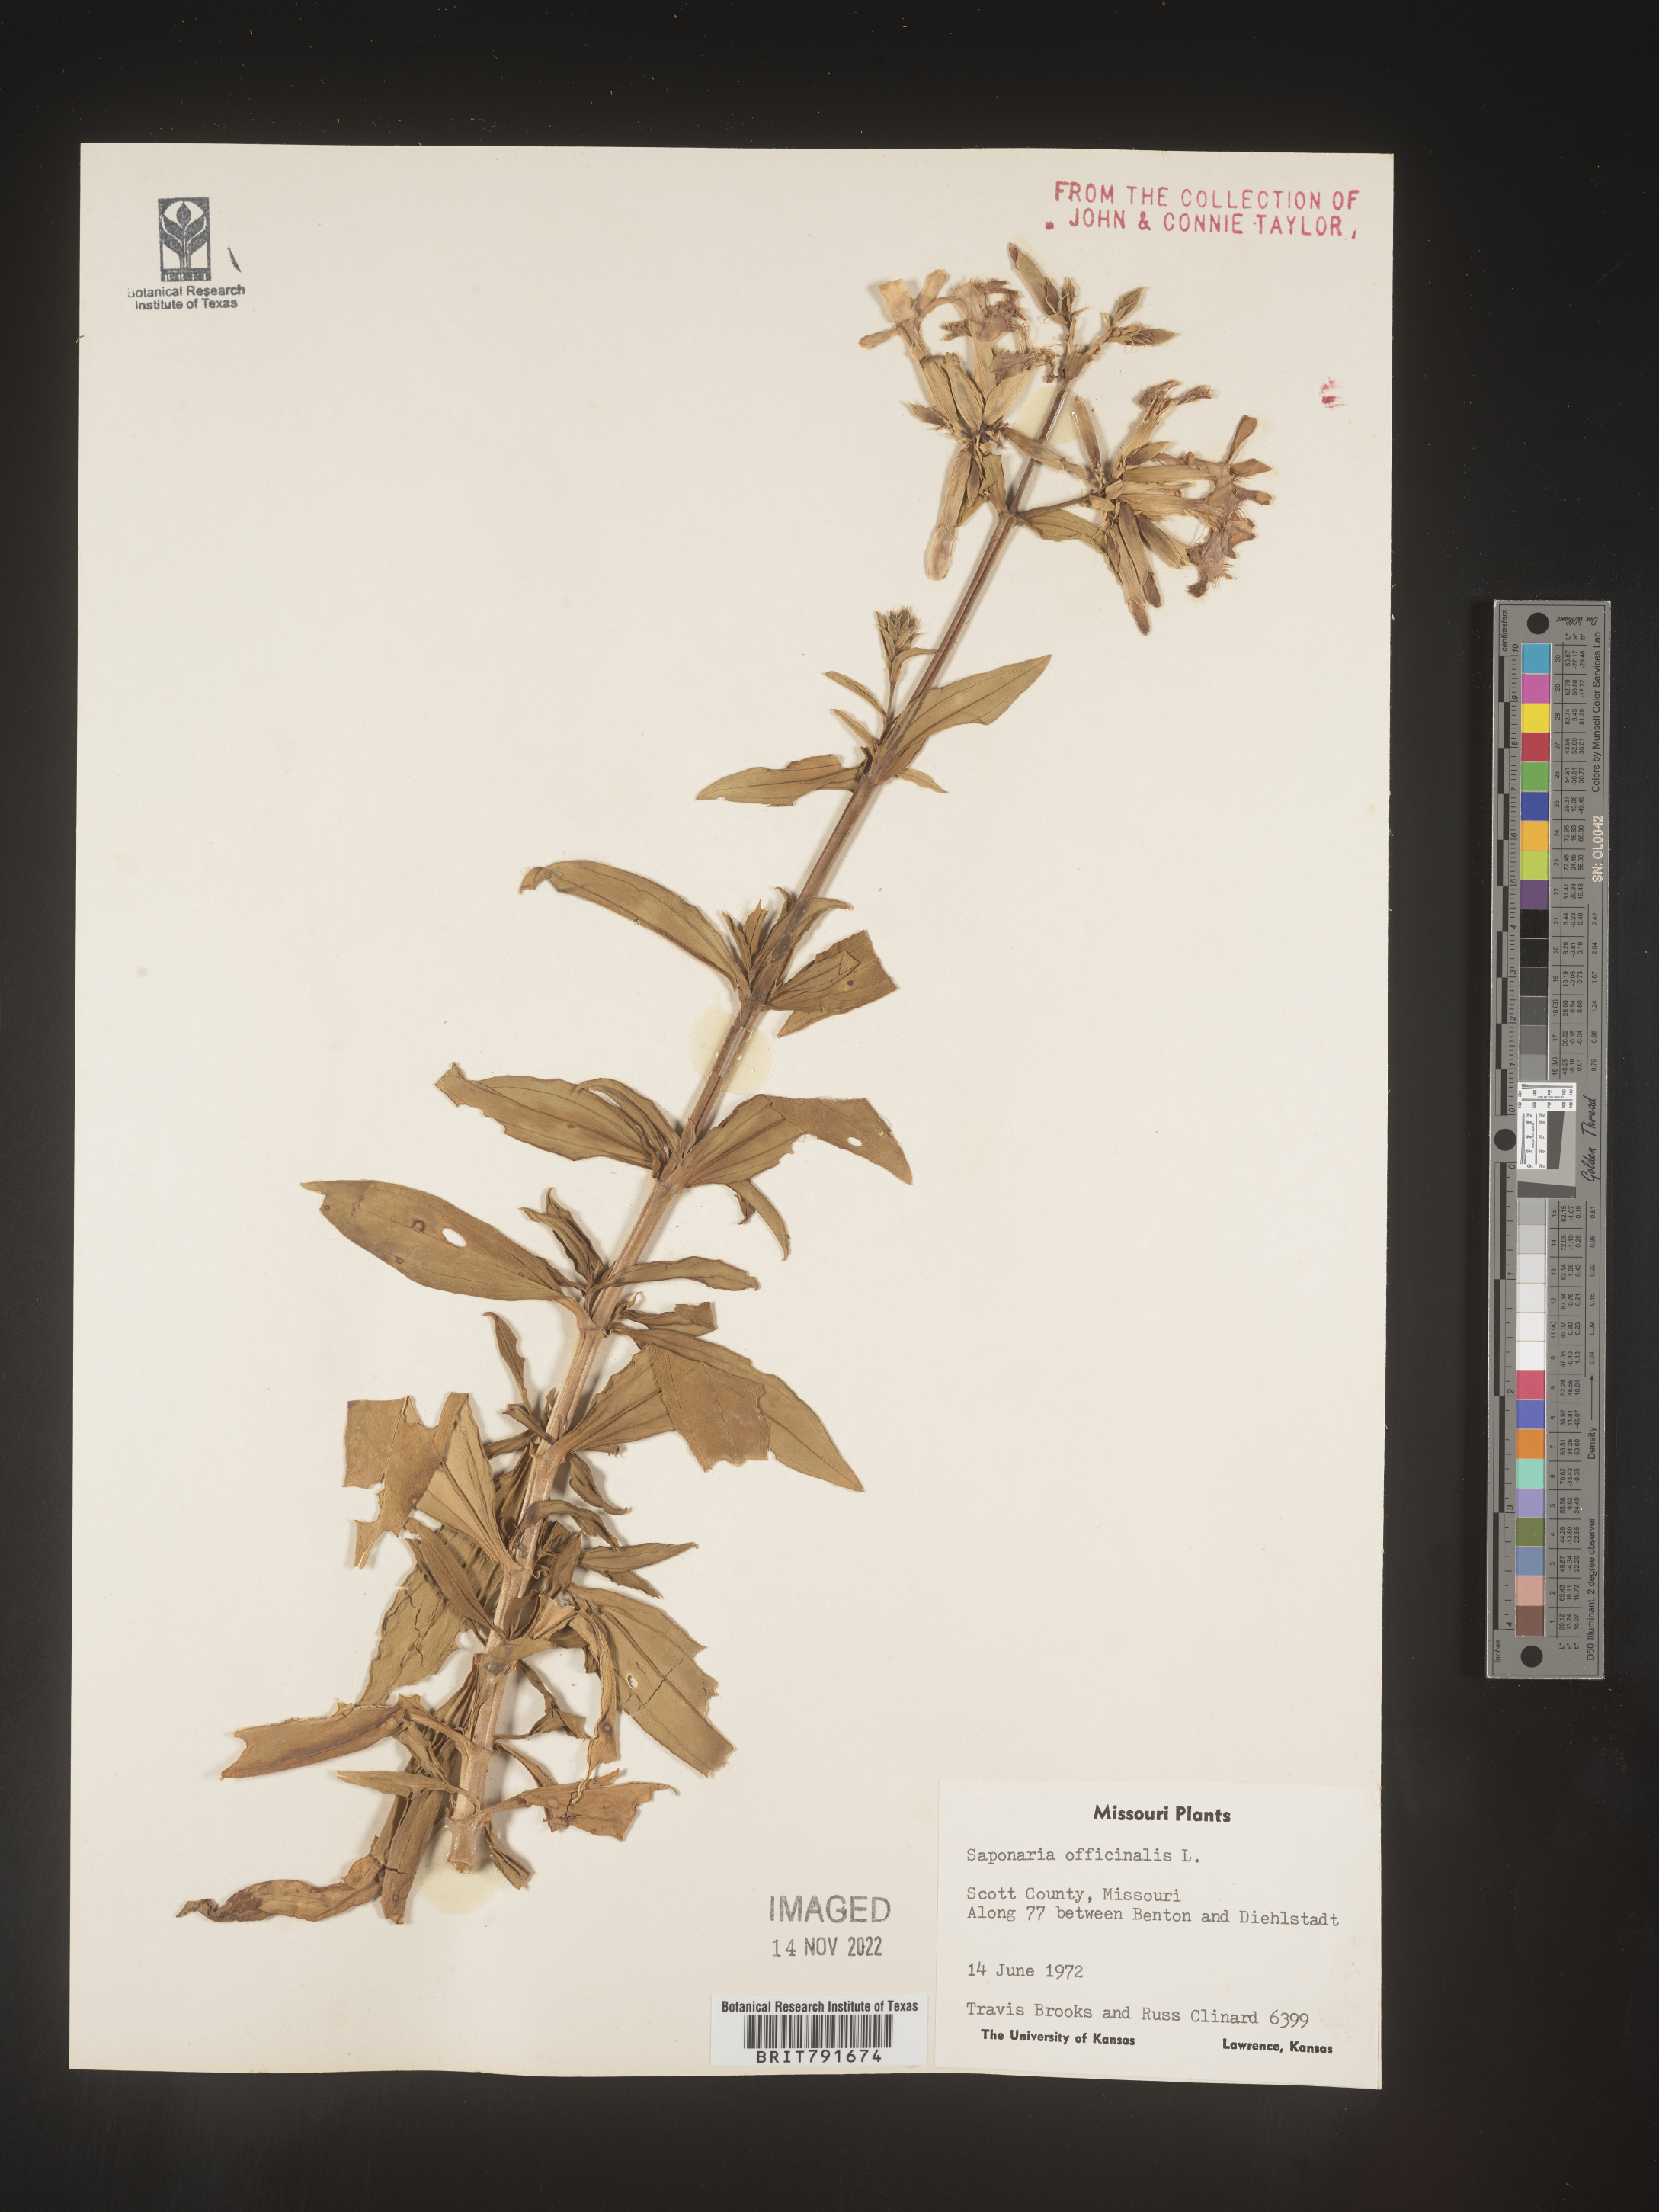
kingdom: Plantae
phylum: Tracheophyta
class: Magnoliopsida
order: Caryophyllales
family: Caryophyllaceae
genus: Saponaria
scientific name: Saponaria officinalis
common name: Soapwort
